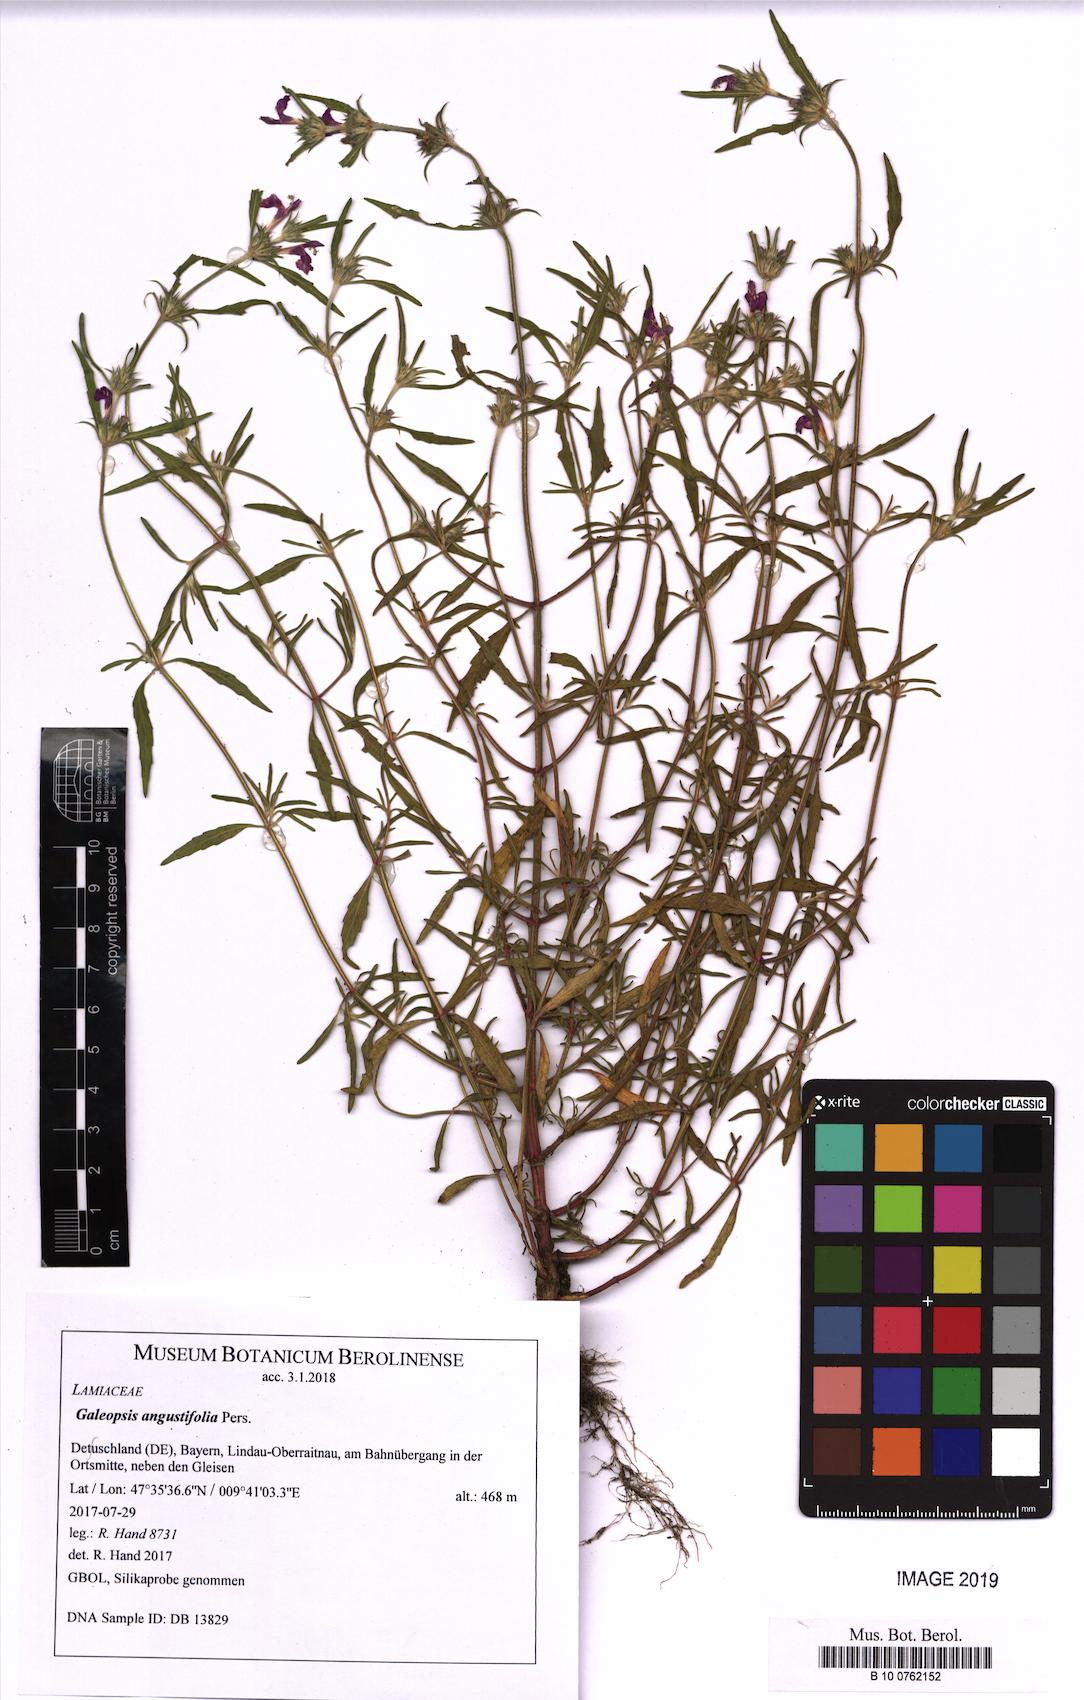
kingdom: Plantae
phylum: Tracheophyta
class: Magnoliopsida
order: Lamiales
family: Lamiaceae
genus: Galeopsis
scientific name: Galeopsis angustifolia
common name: Red hemp-nettle
